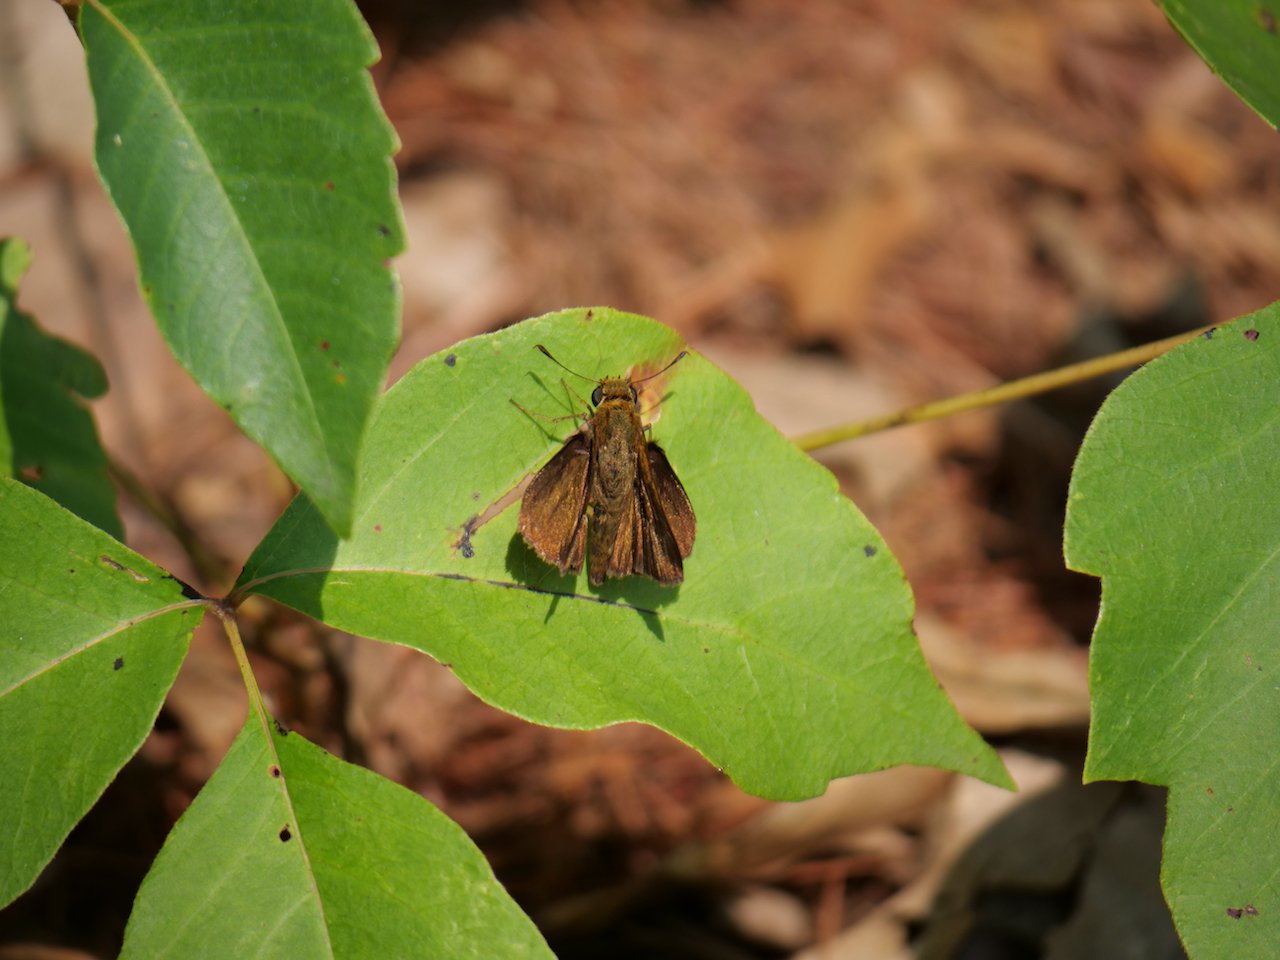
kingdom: Animalia
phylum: Arthropoda
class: Insecta
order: Lepidoptera
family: Hesperiidae
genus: Euphyes
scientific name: Euphyes vestris
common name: Dun Skipper
